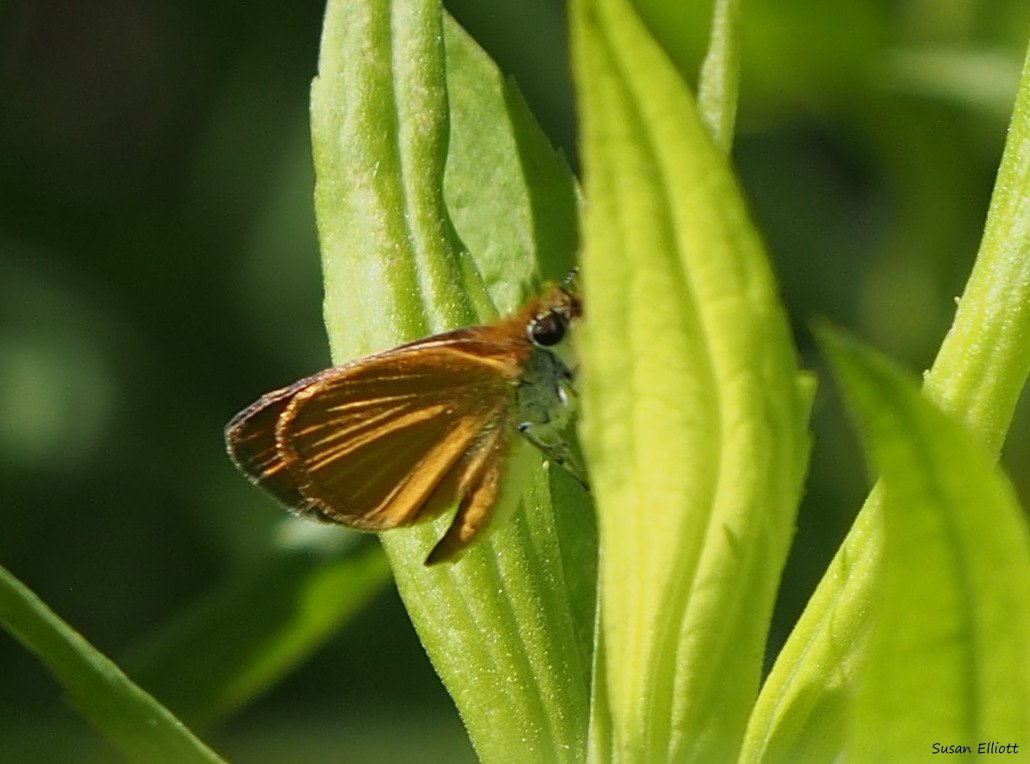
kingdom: Animalia
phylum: Arthropoda
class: Insecta
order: Lepidoptera
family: Hesperiidae
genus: Ancyloxypha
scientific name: Ancyloxypha numitor
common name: Least Skipper
